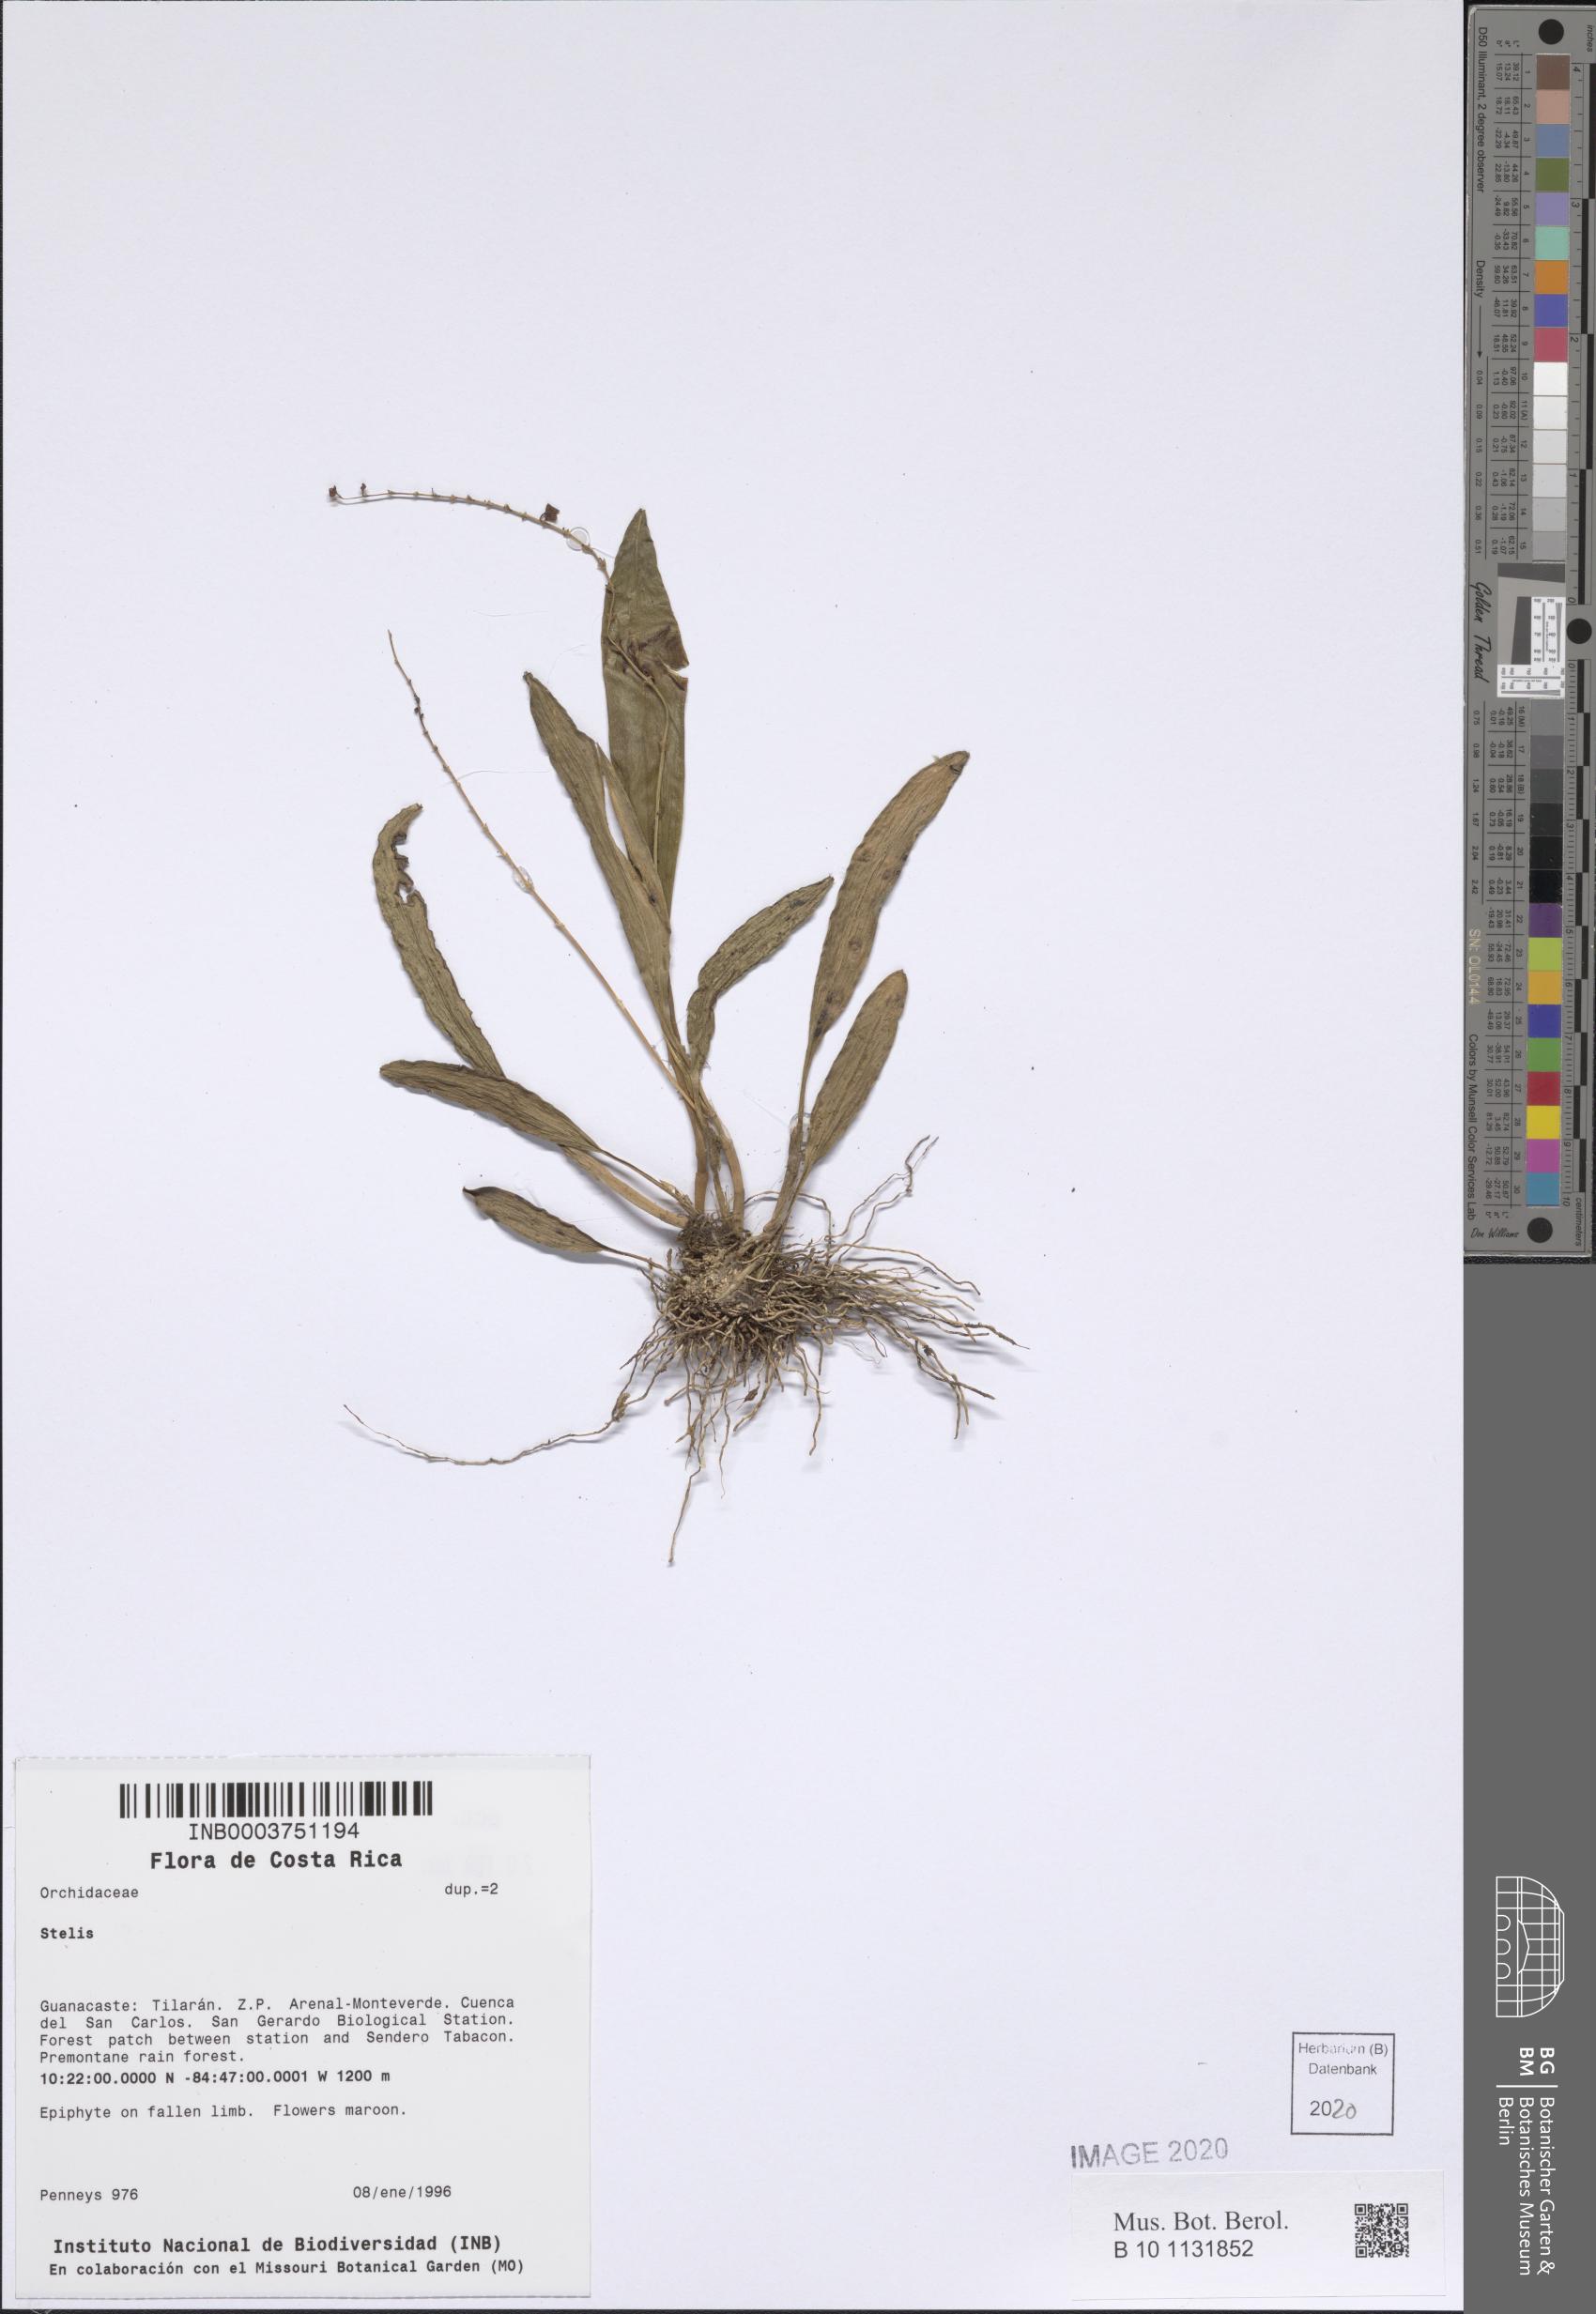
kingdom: Plantae
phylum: Tracheophyta
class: Liliopsida
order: Asparagales
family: Orchidaceae
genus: Stelis
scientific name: Stelis
